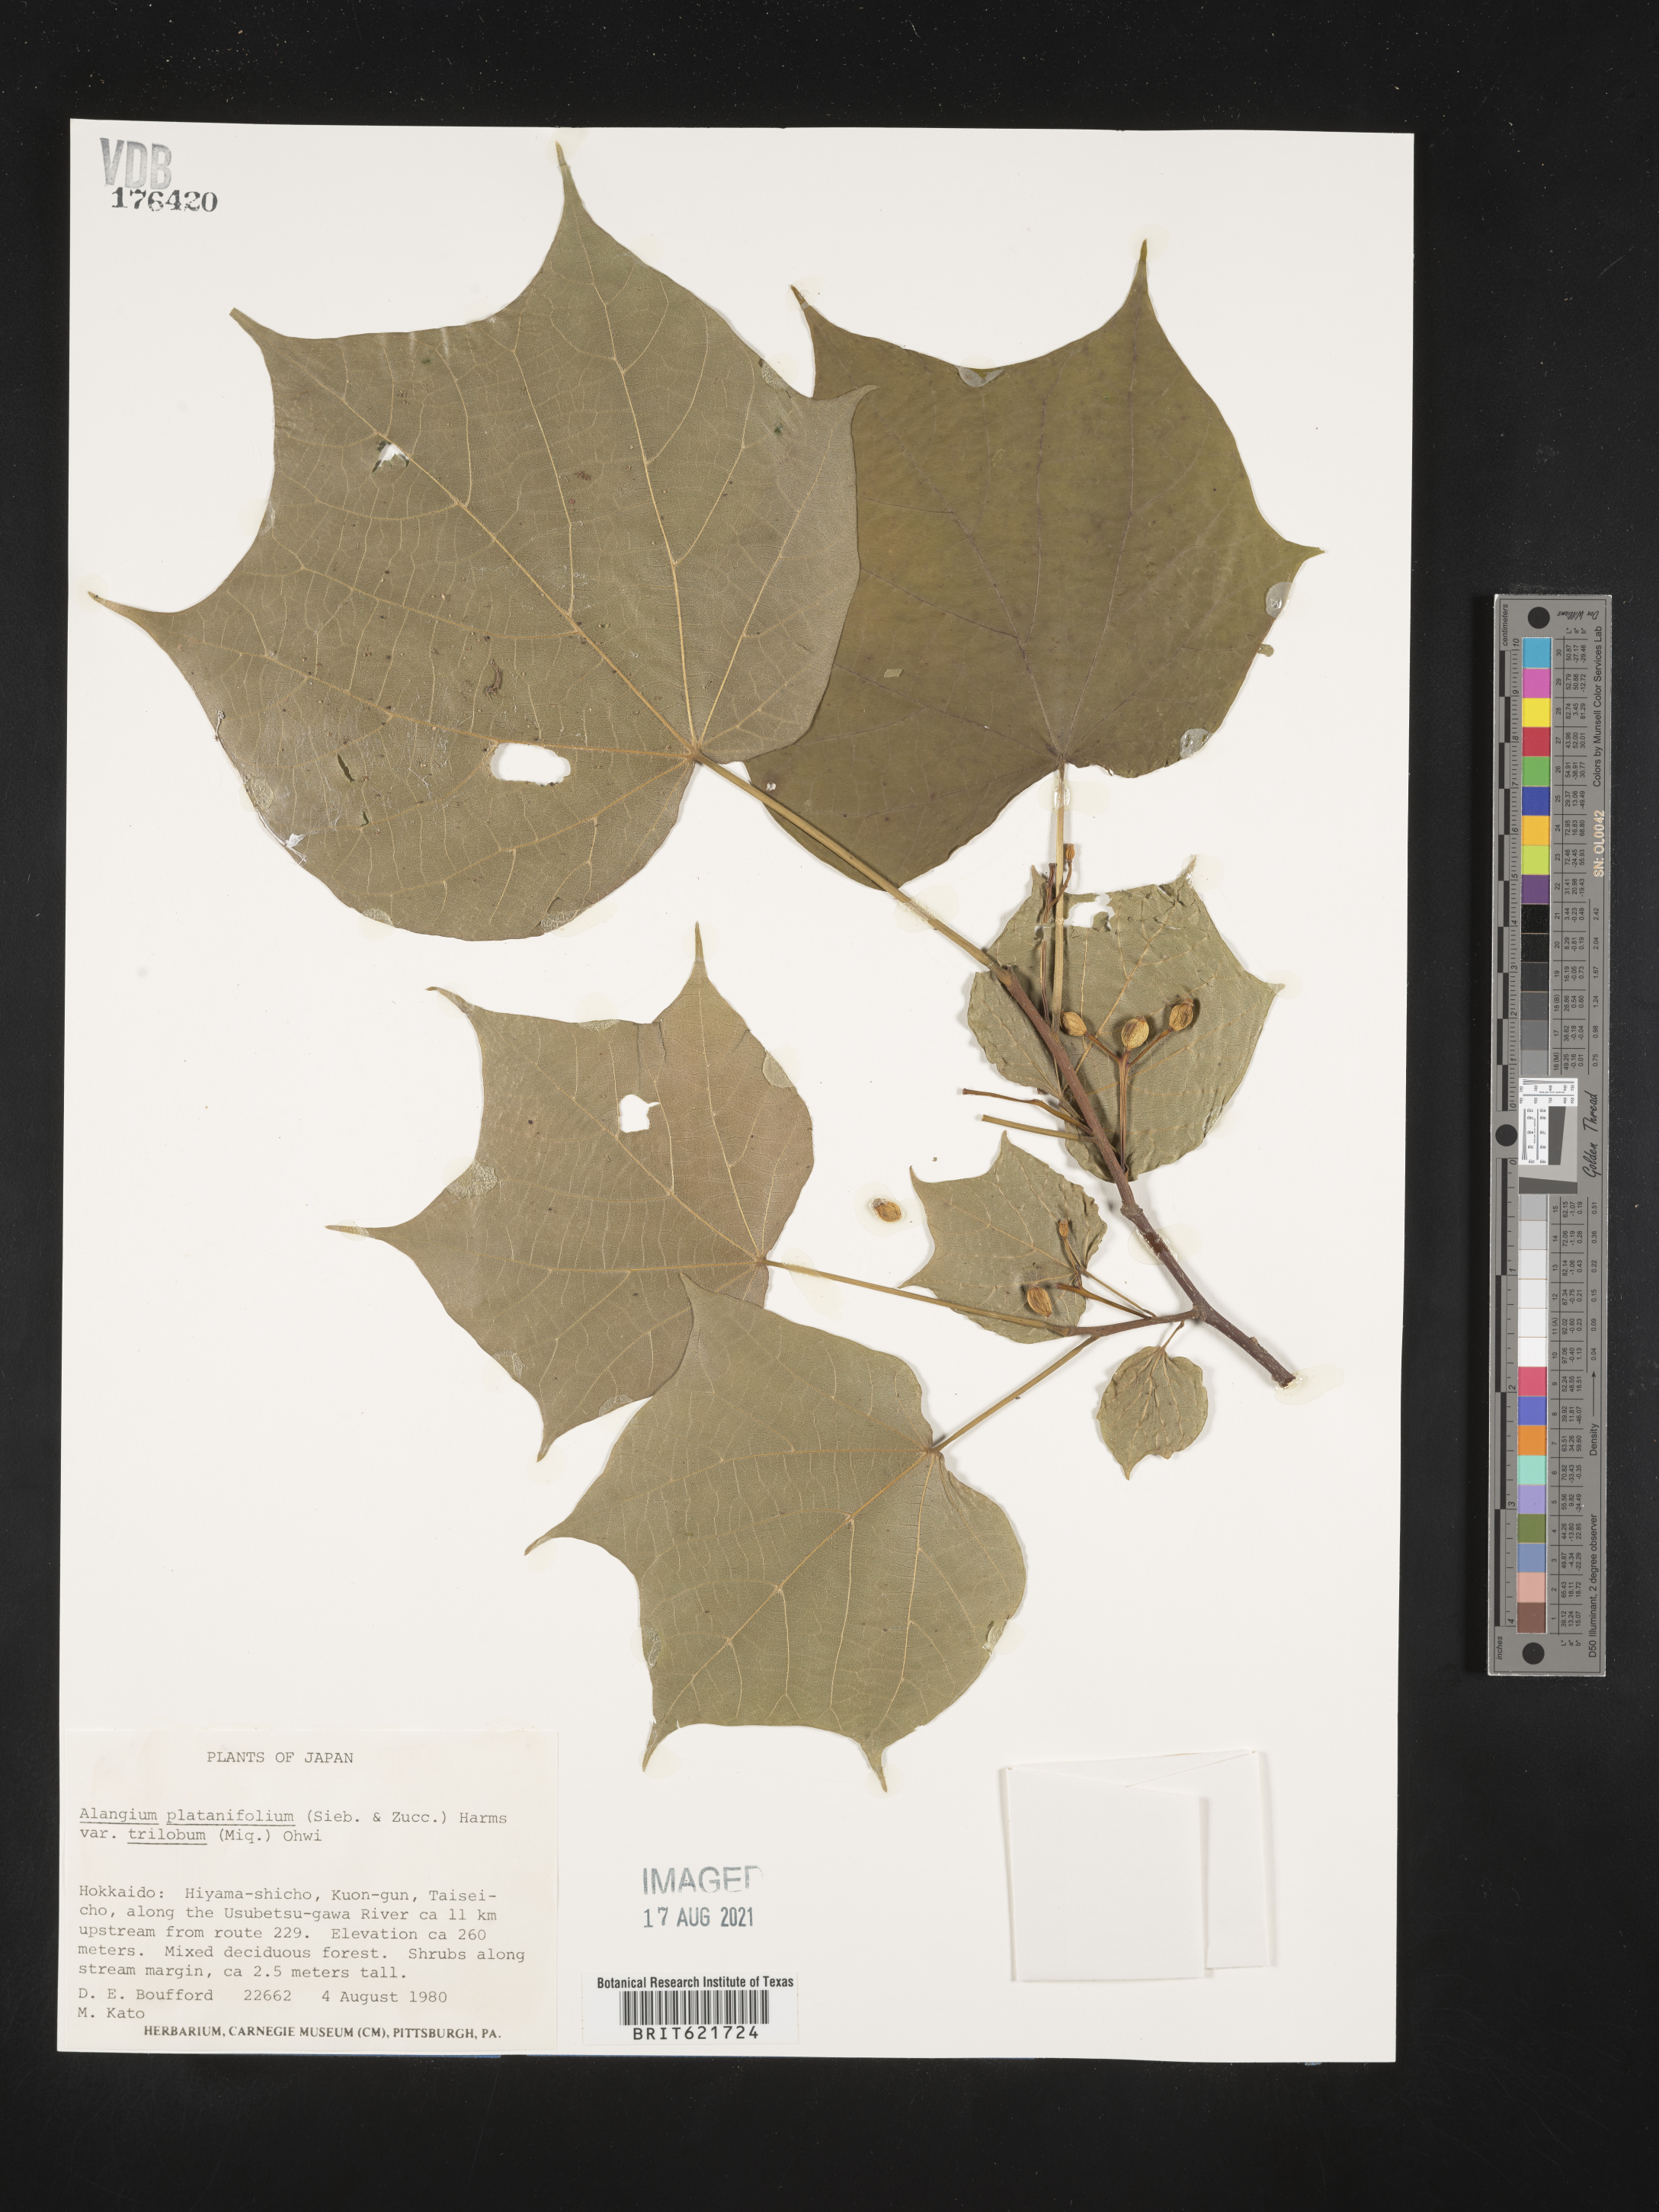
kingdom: Plantae
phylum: Tracheophyta
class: Magnoliopsida
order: Cornales
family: Cornaceae
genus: Alangium
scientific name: Alangium platanifolium
